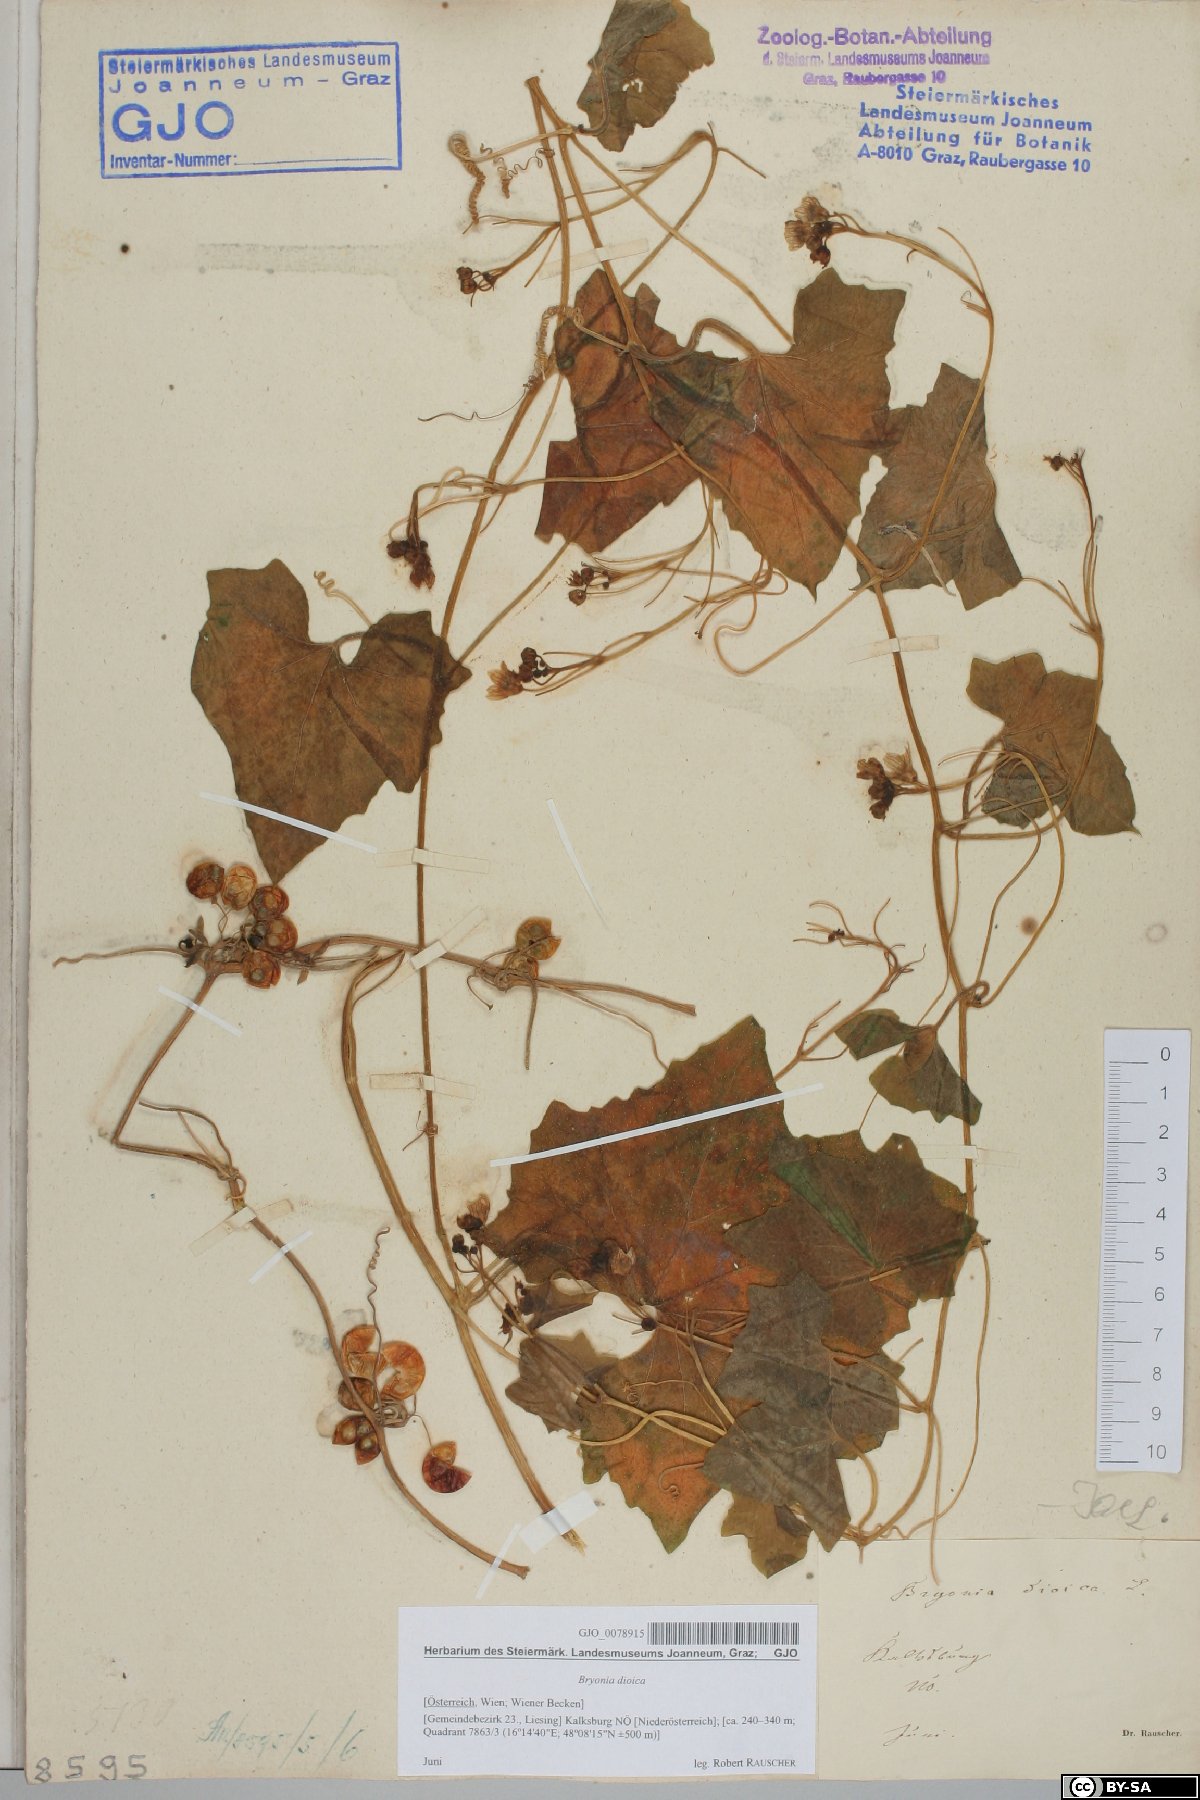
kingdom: Plantae
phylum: Tracheophyta
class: Magnoliopsida
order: Cucurbitales
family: Cucurbitaceae
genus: Bryonia
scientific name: Bryonia dioica
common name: White bryony
